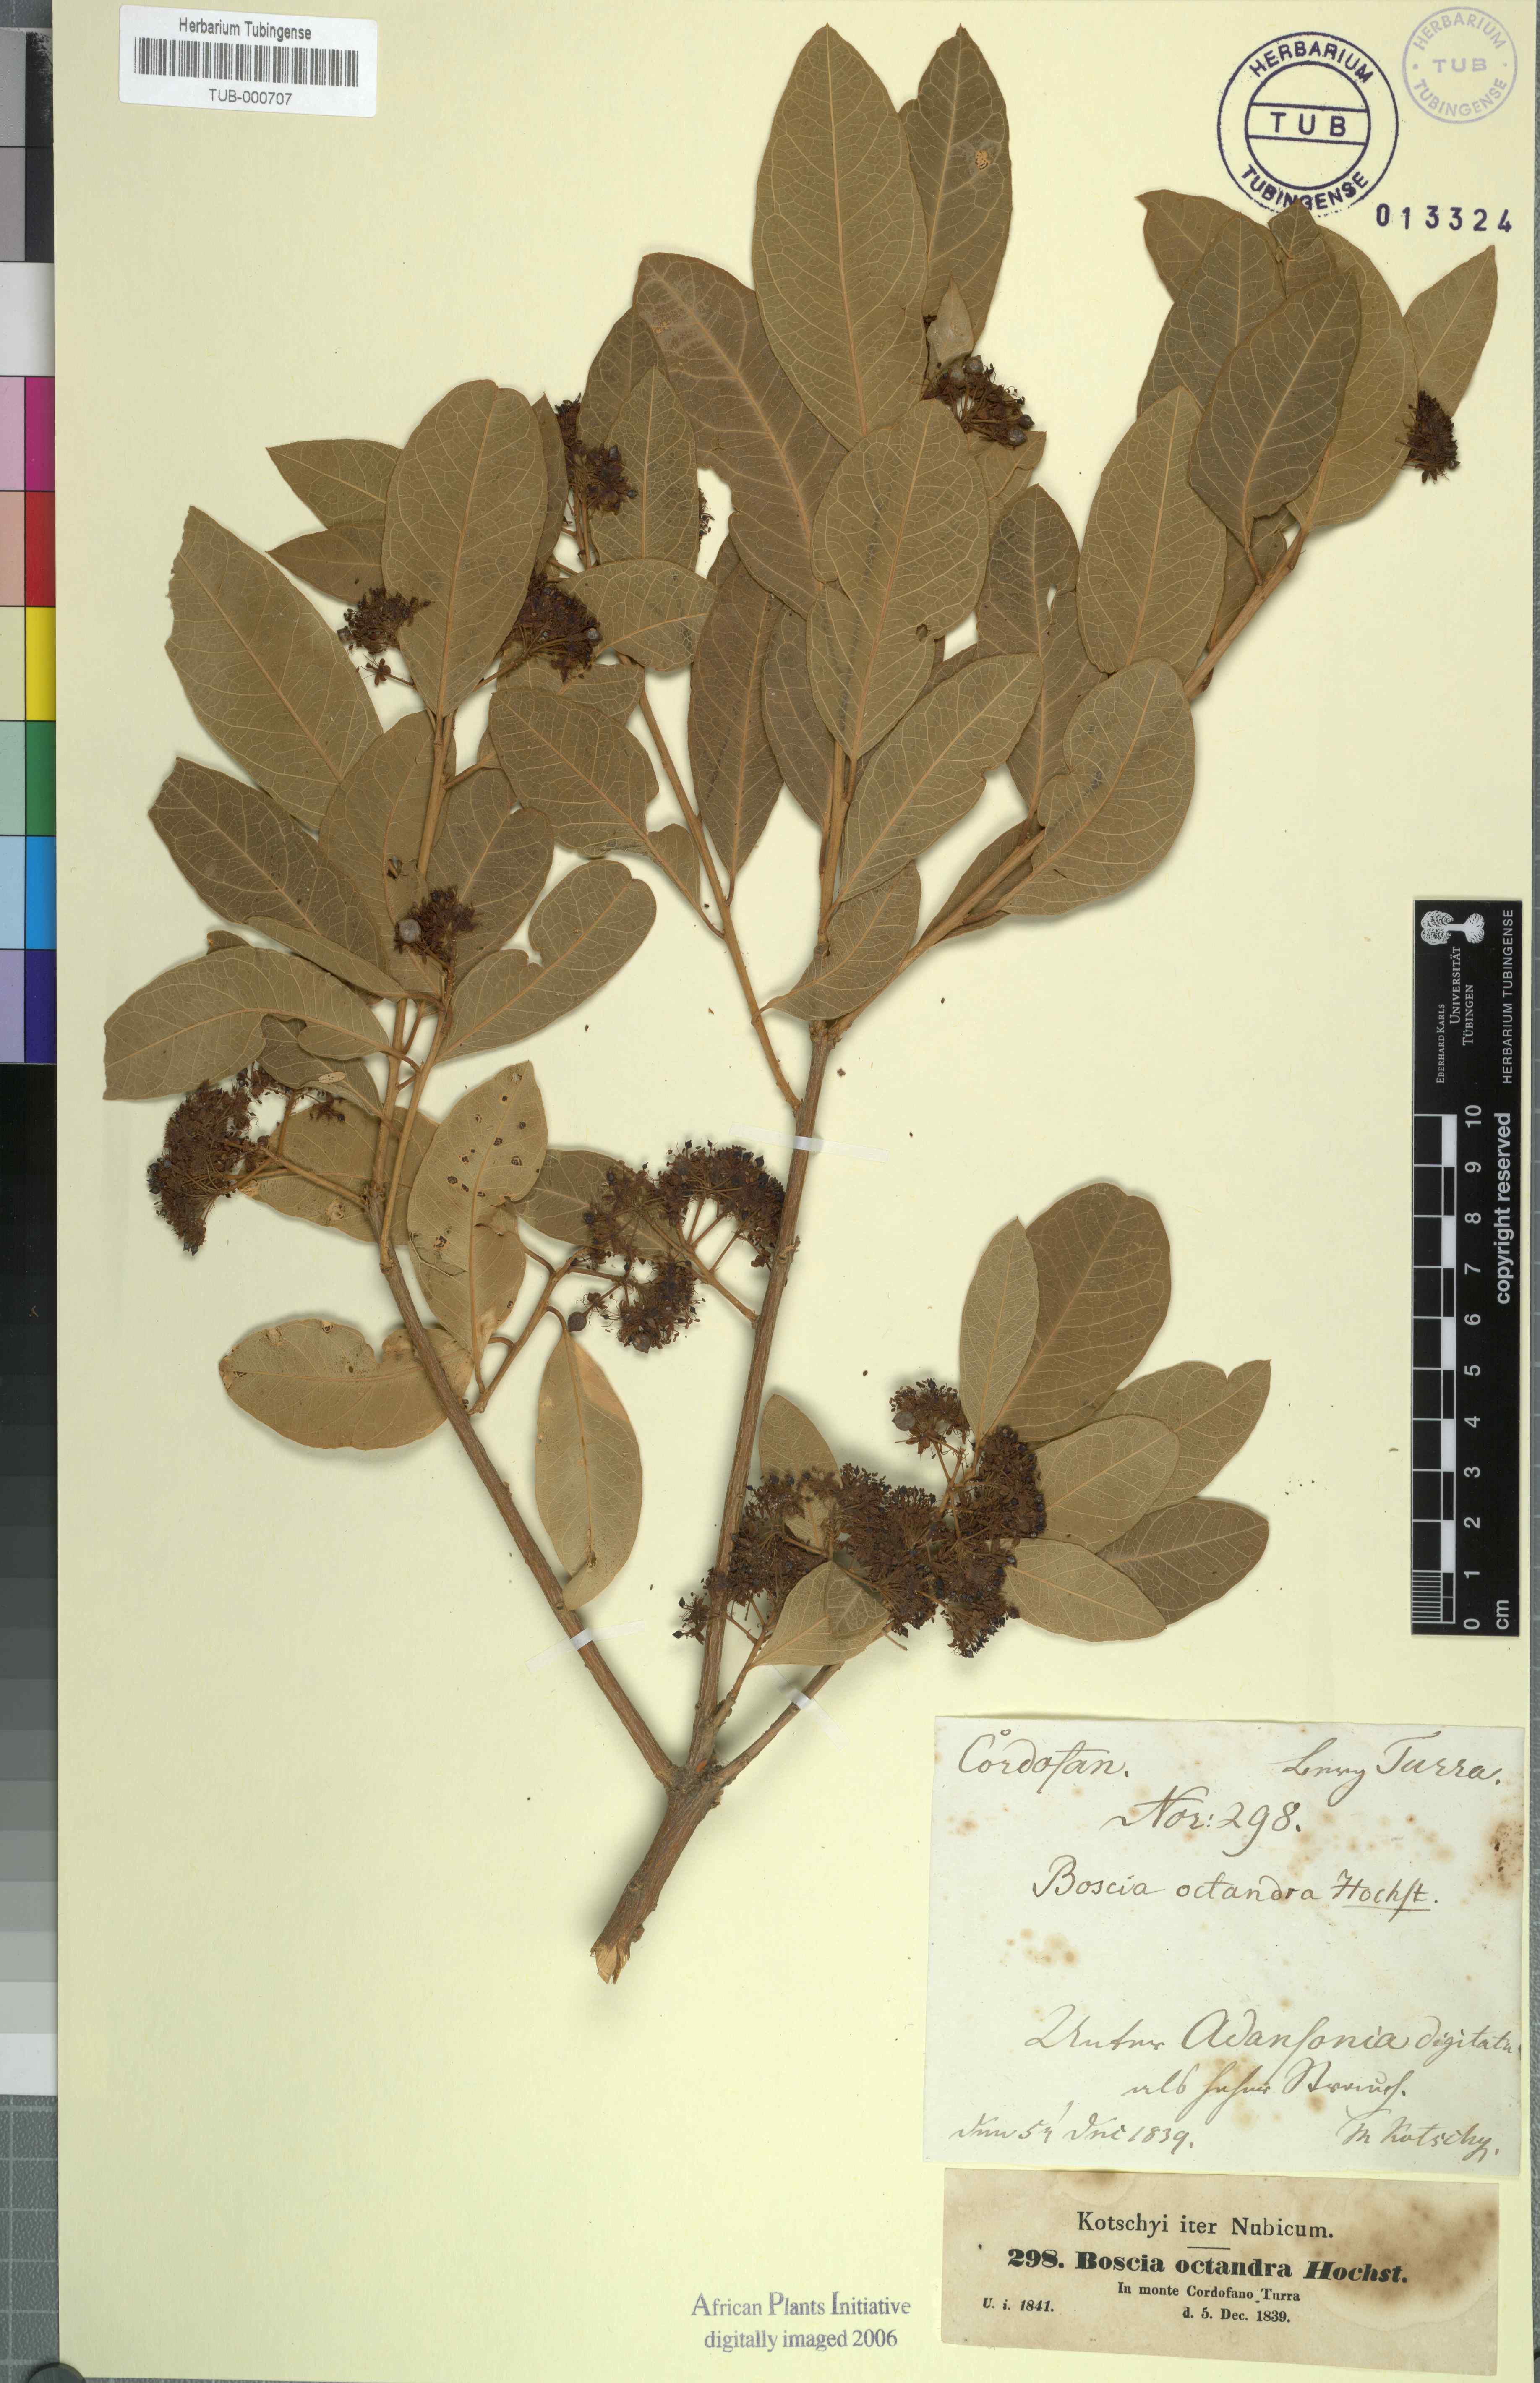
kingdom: Plantae
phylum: Tracheophyta
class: Magnoliopsida
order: Brassicales
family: Capparaceae
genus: Boscia
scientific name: Boscia senegalensis
